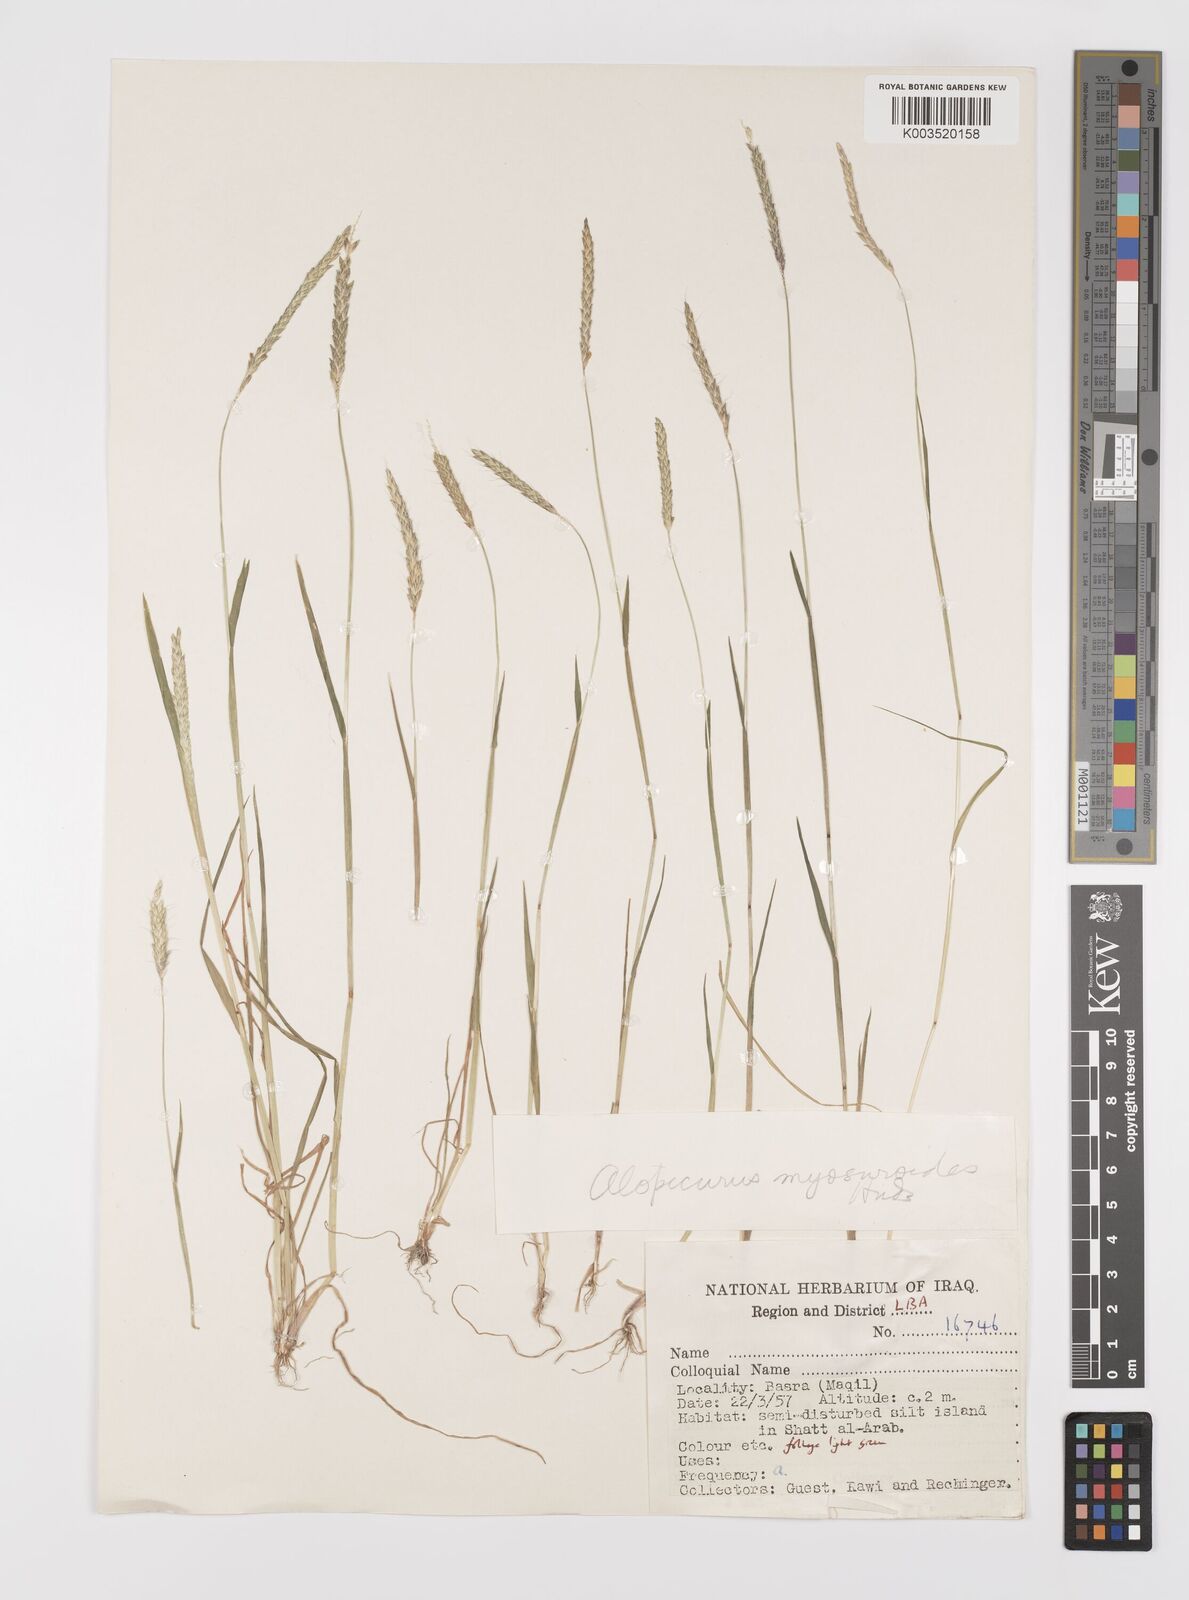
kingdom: Plantae
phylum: Tracheophyta
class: Liliopsida
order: Poales
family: Poaceae
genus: Alopecurus
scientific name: Alopecurus myosuroides
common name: Black-grass
